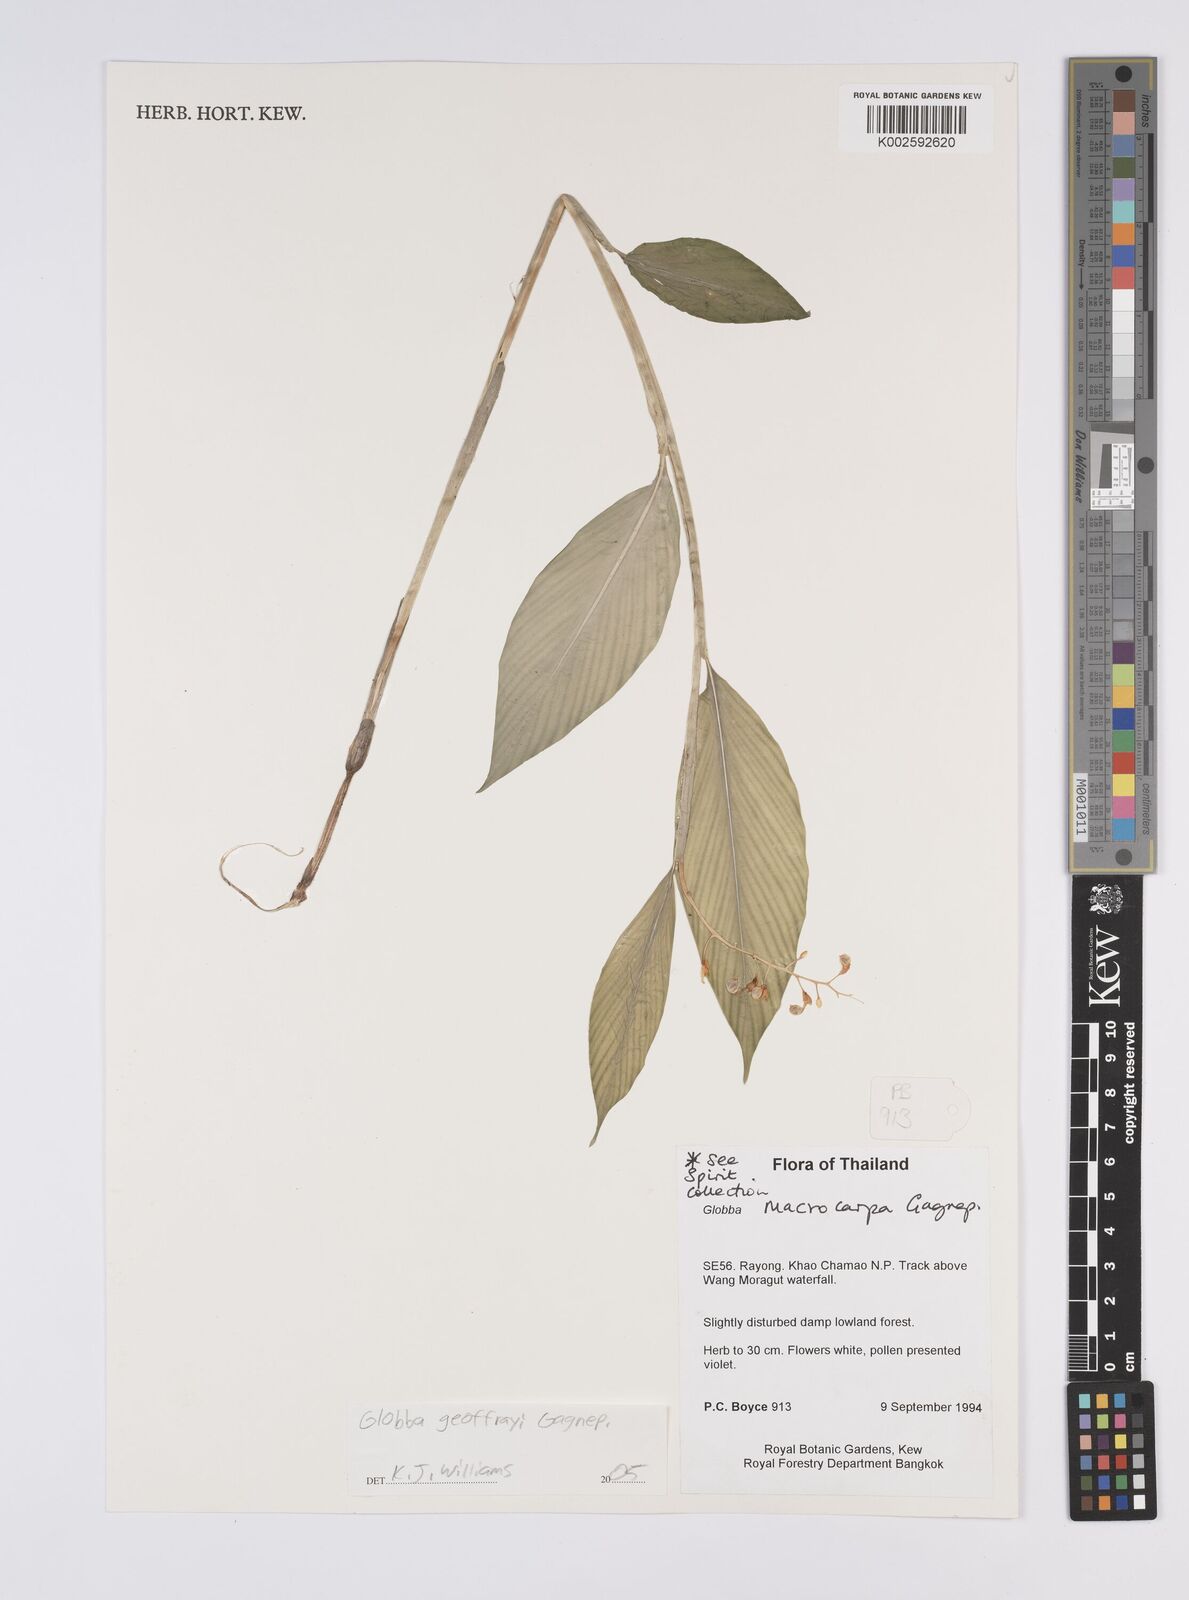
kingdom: Plantae
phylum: Tracheophyta
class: Liliopsida
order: Zingiberales
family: Zingiberaceae
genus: Globba
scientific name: Globba geoffrayi
